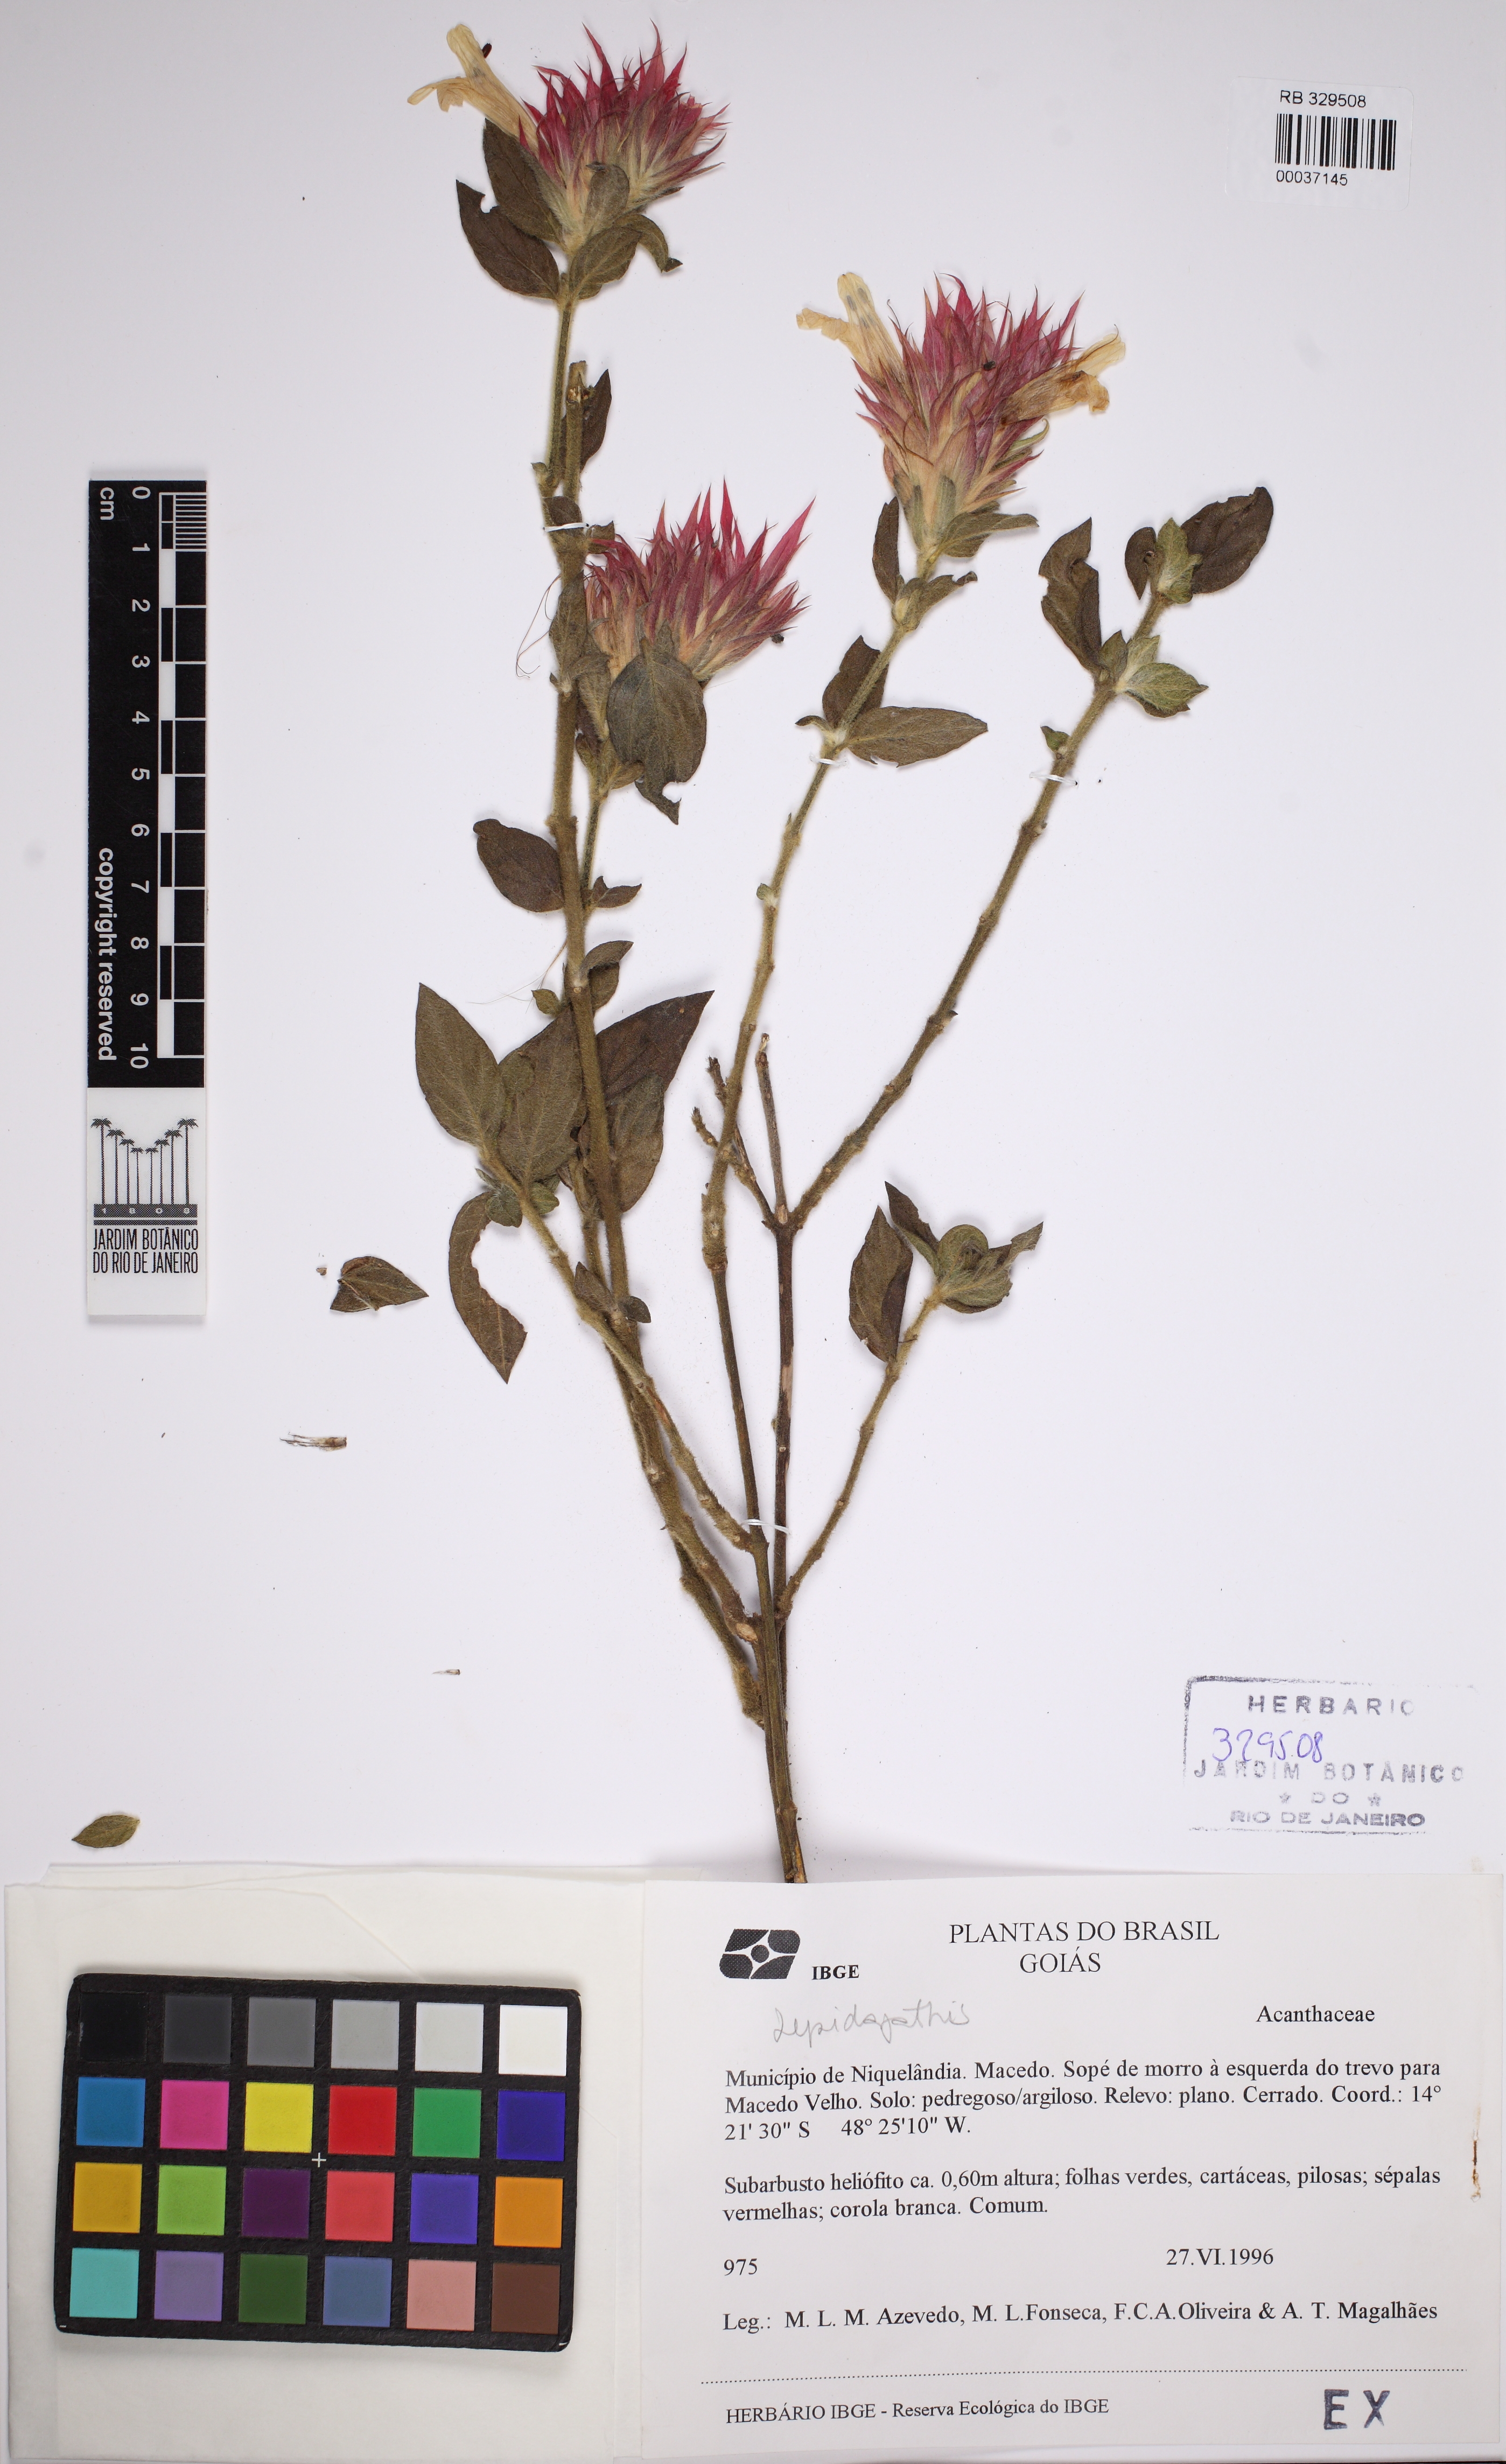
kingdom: Plantae
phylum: Tracheophyta
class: Magnoliopsida
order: Lamiales
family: Acanthaceae
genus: Lepidagathis
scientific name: Lepidagathis
